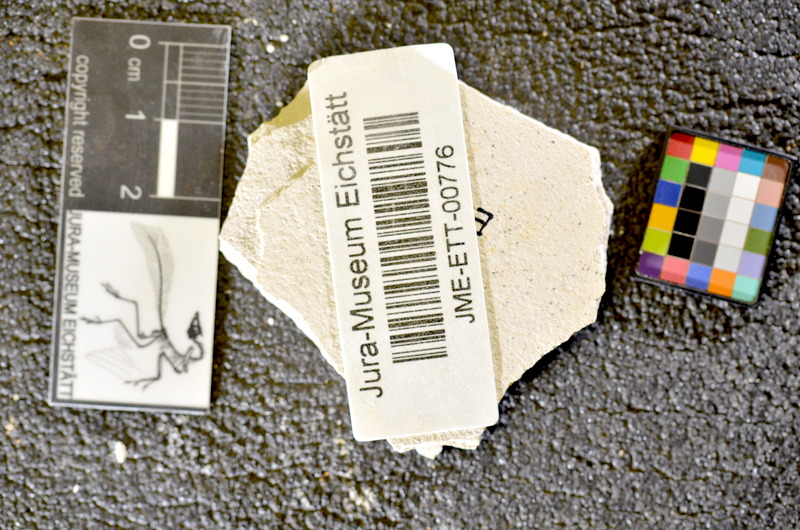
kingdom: Animalia
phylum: Chordata
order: Salmoniformes
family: Orthogonikleithridae
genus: Orthogonikleithrus
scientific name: Orthogonikleithrus hoelli
